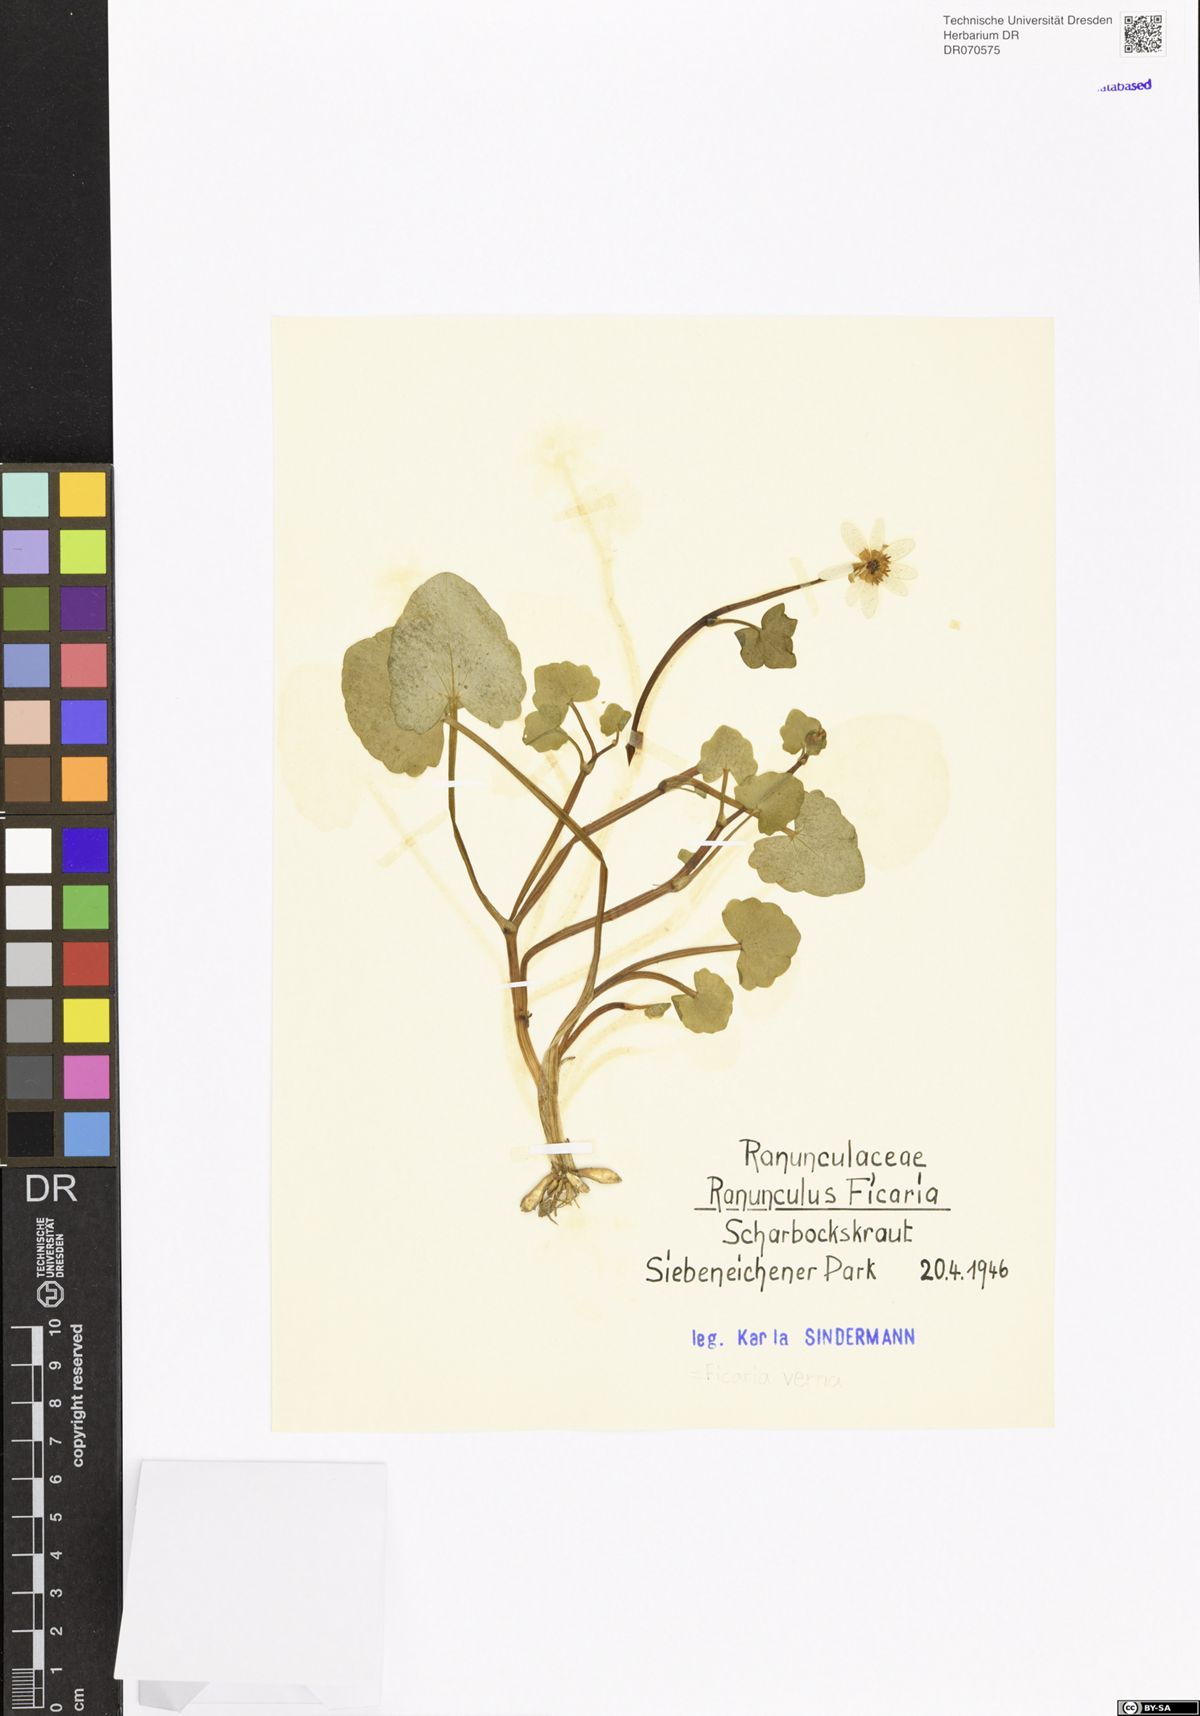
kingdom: Plantae
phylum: Tracheophyta
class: Magnoliopsida
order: Ranunculales
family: Ranunculaceae
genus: Ficaria
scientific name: Ficaria verna
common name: Lesser celandine
